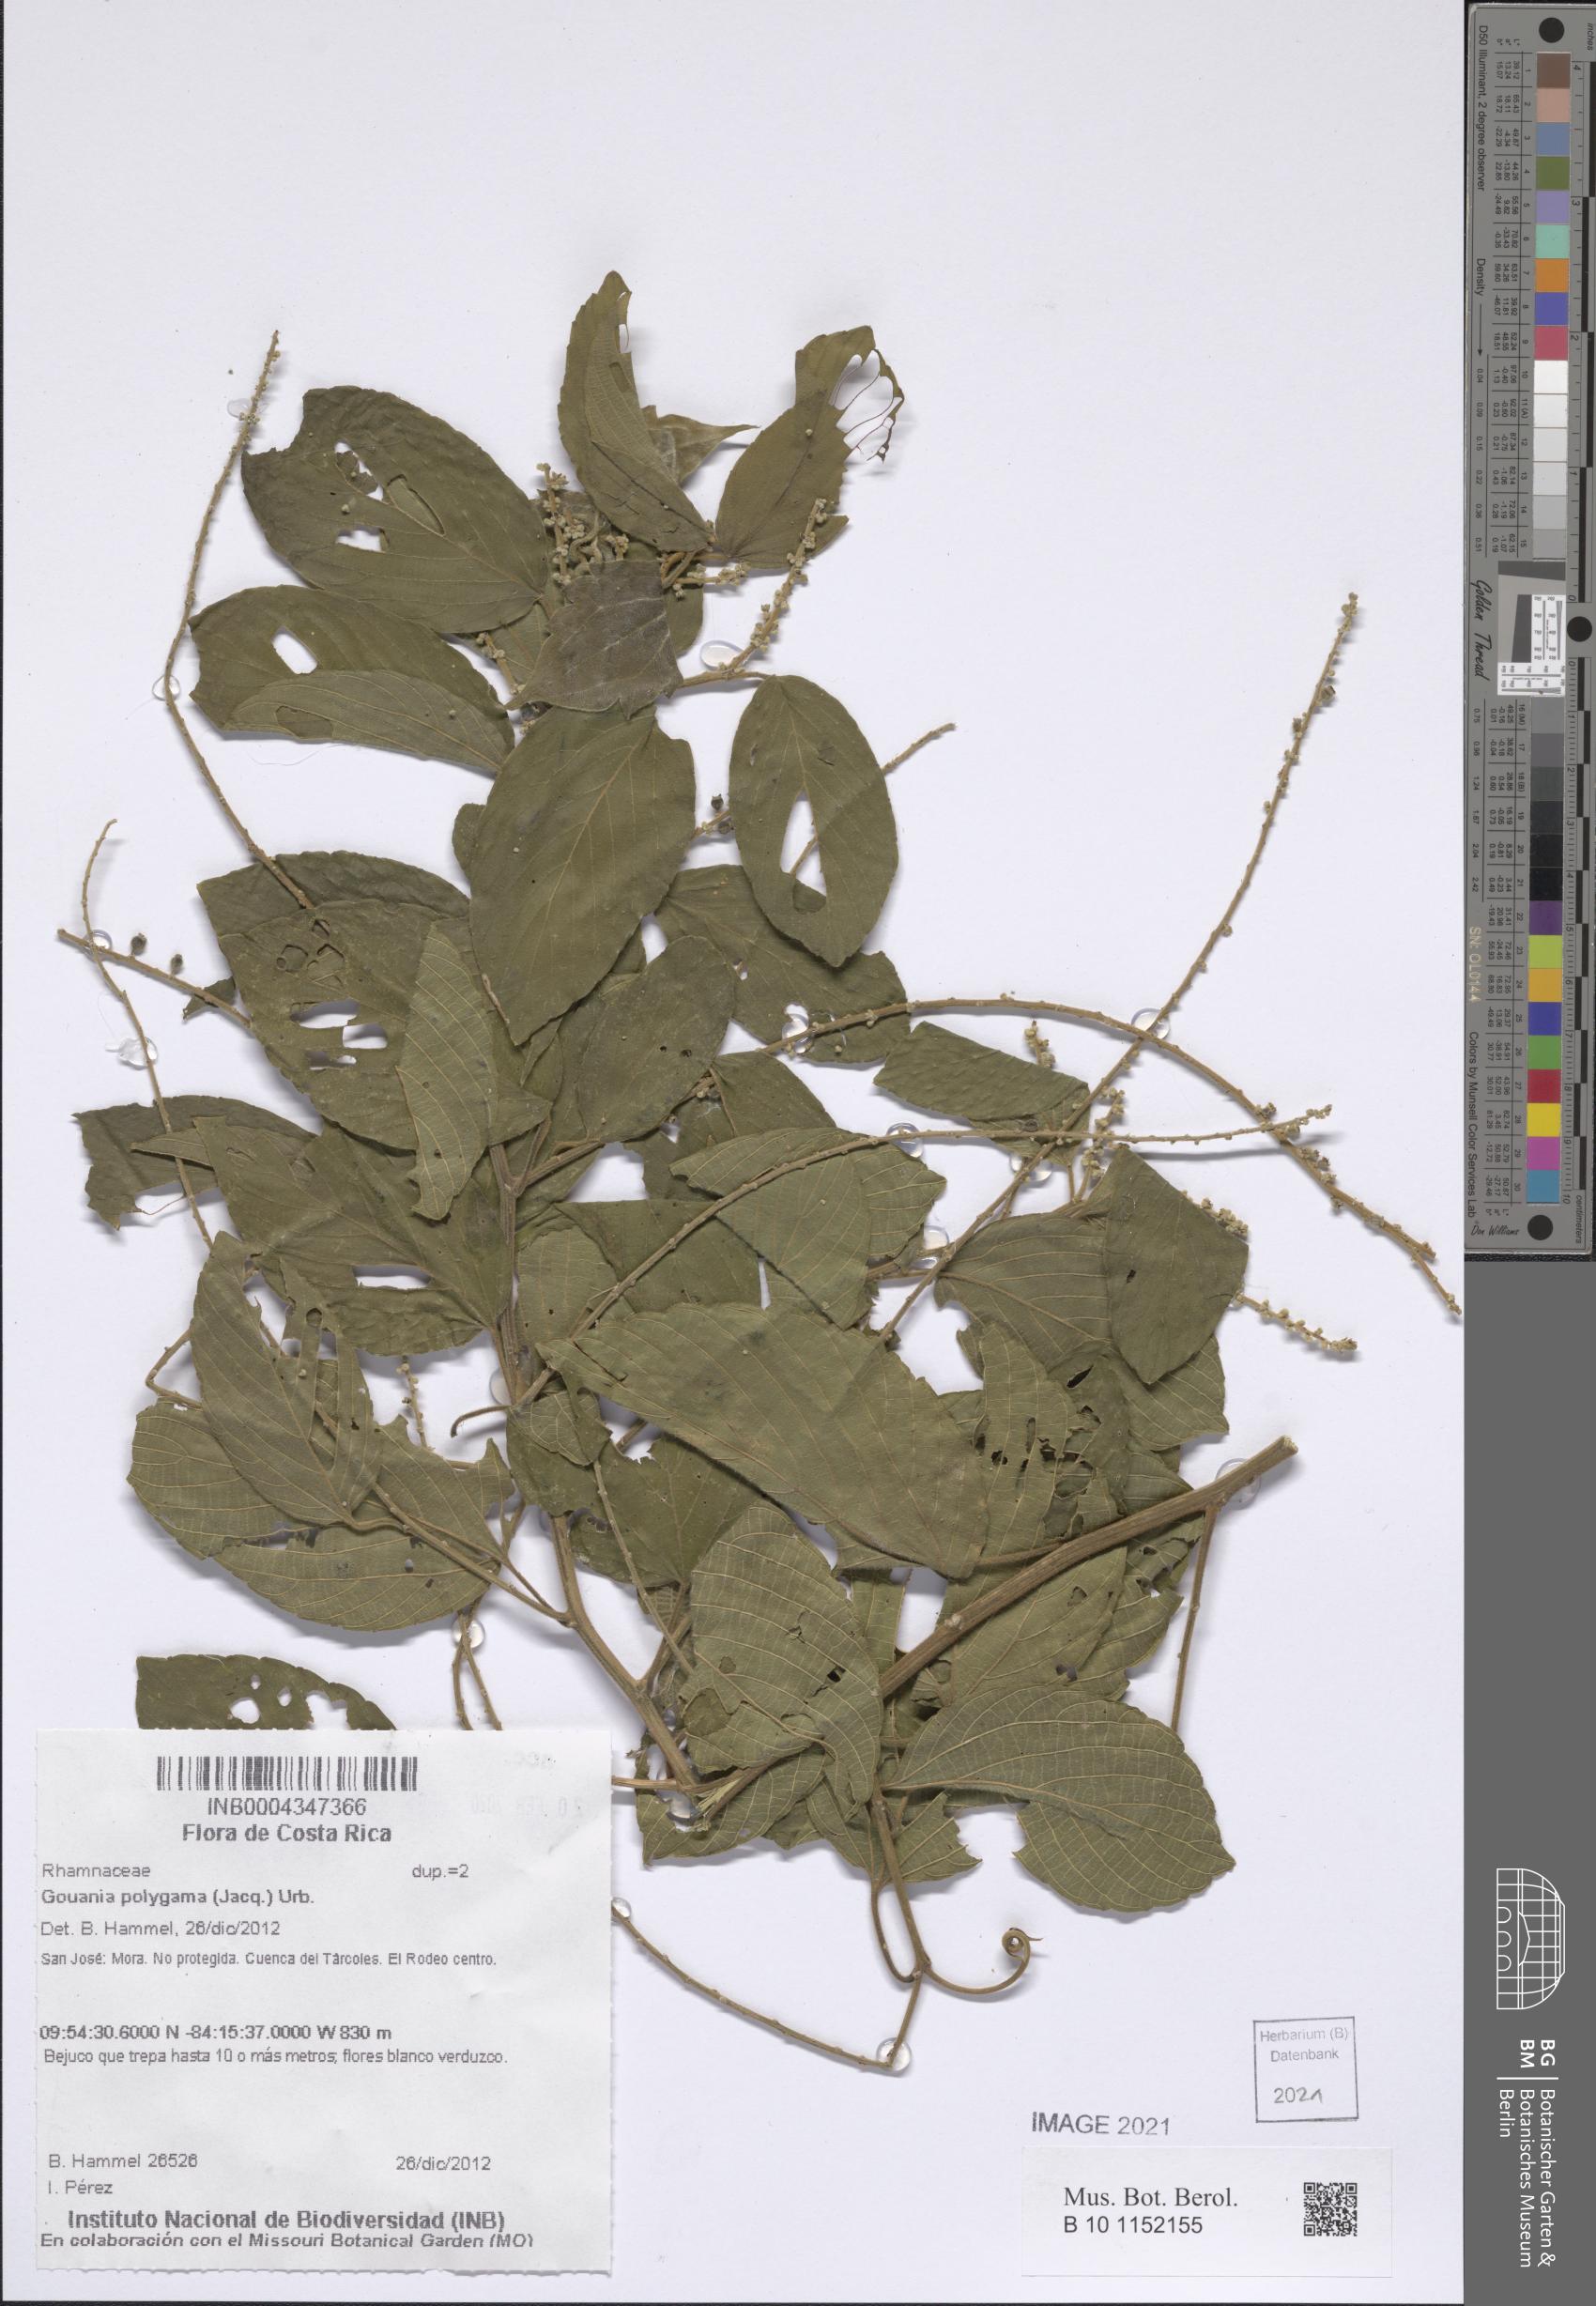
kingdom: Plantae
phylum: Tracheophyta
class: Magnoliopsida
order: Rosales
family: Rhamnaceae
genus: Gouania
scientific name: Gouania polygama
